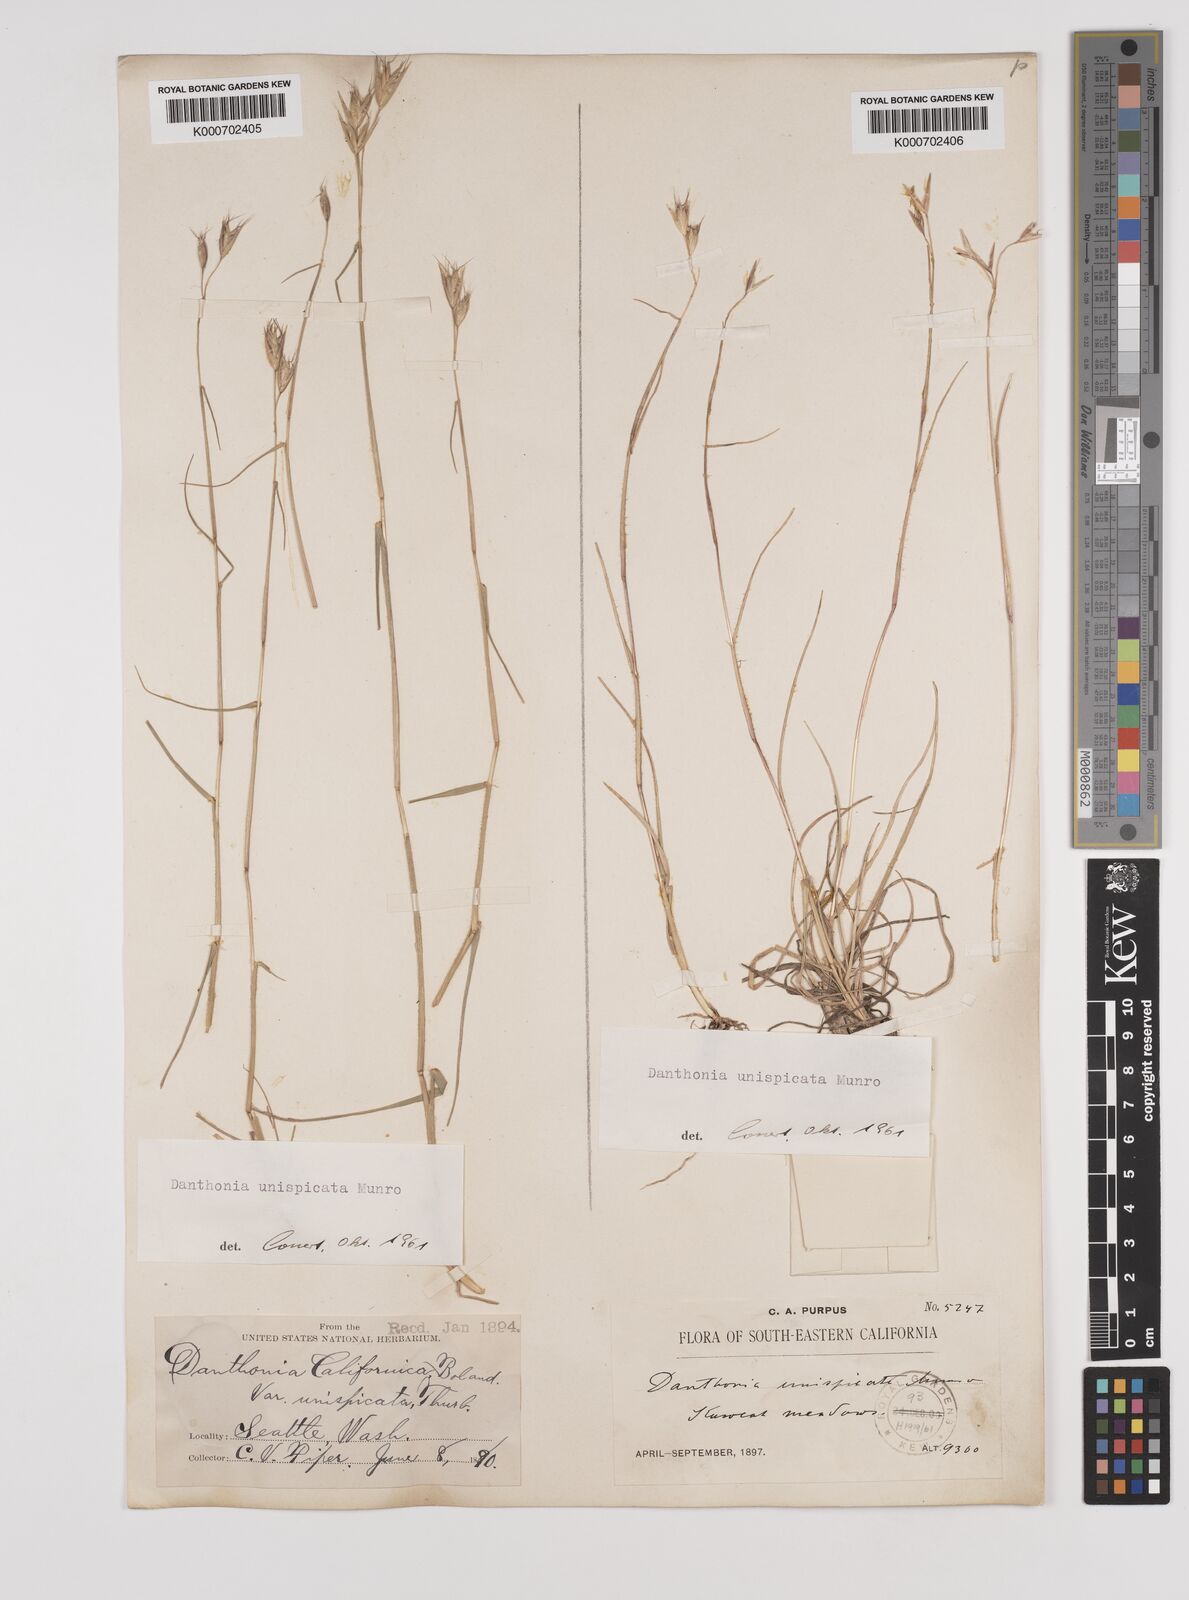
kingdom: Plantae
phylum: Tracheophyta
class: Liliopsida
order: Poales
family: Poaceae
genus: Danthonia
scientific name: Danthonia unispicata
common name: Few-flowered oatgrass
